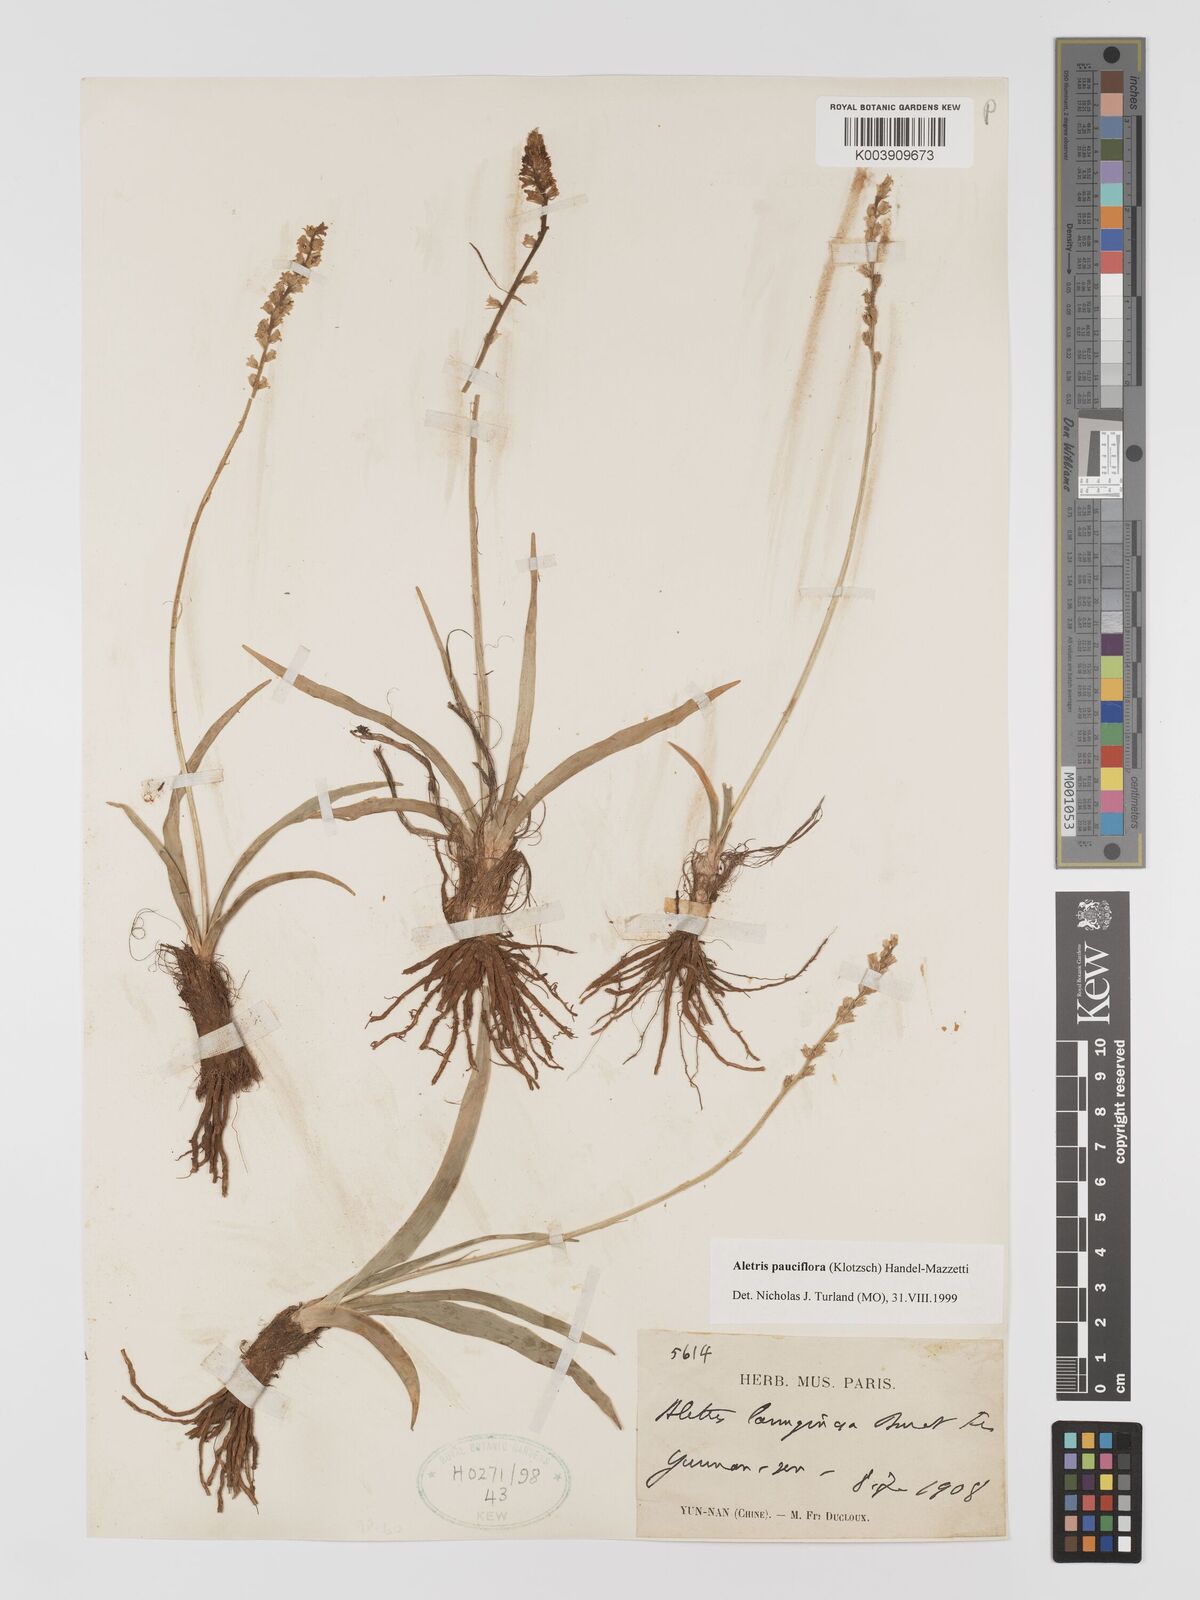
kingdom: Plantae
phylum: Tracheophyta
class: Liliopsida
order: Dioscoreales
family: Nartheciaceae
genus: Aletris
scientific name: Aletris pauciflora
